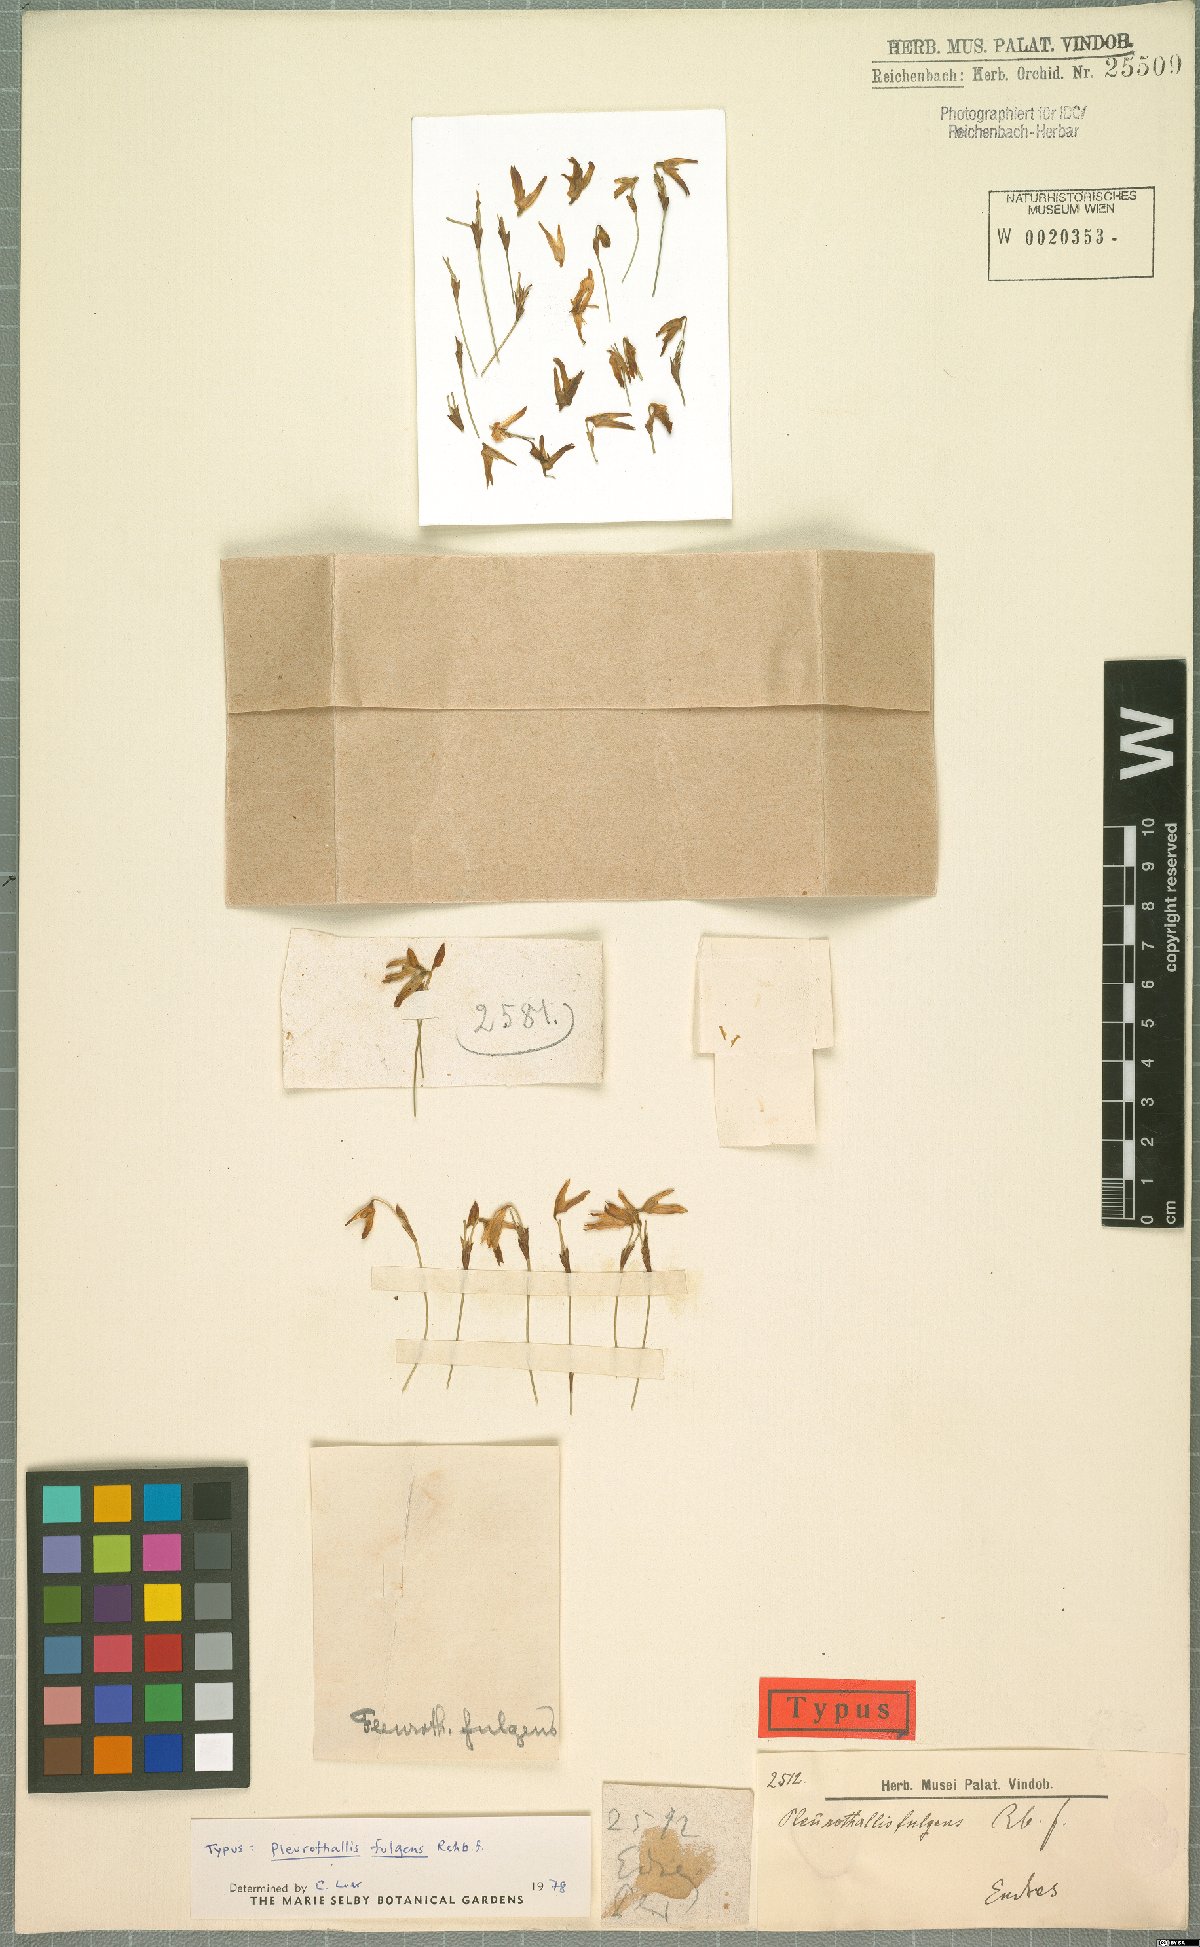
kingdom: Plantae
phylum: Tracheophyta
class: Liliopsida
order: Asparagales
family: Orchidaceae
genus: Specklinia
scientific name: Specklinia fulgens
